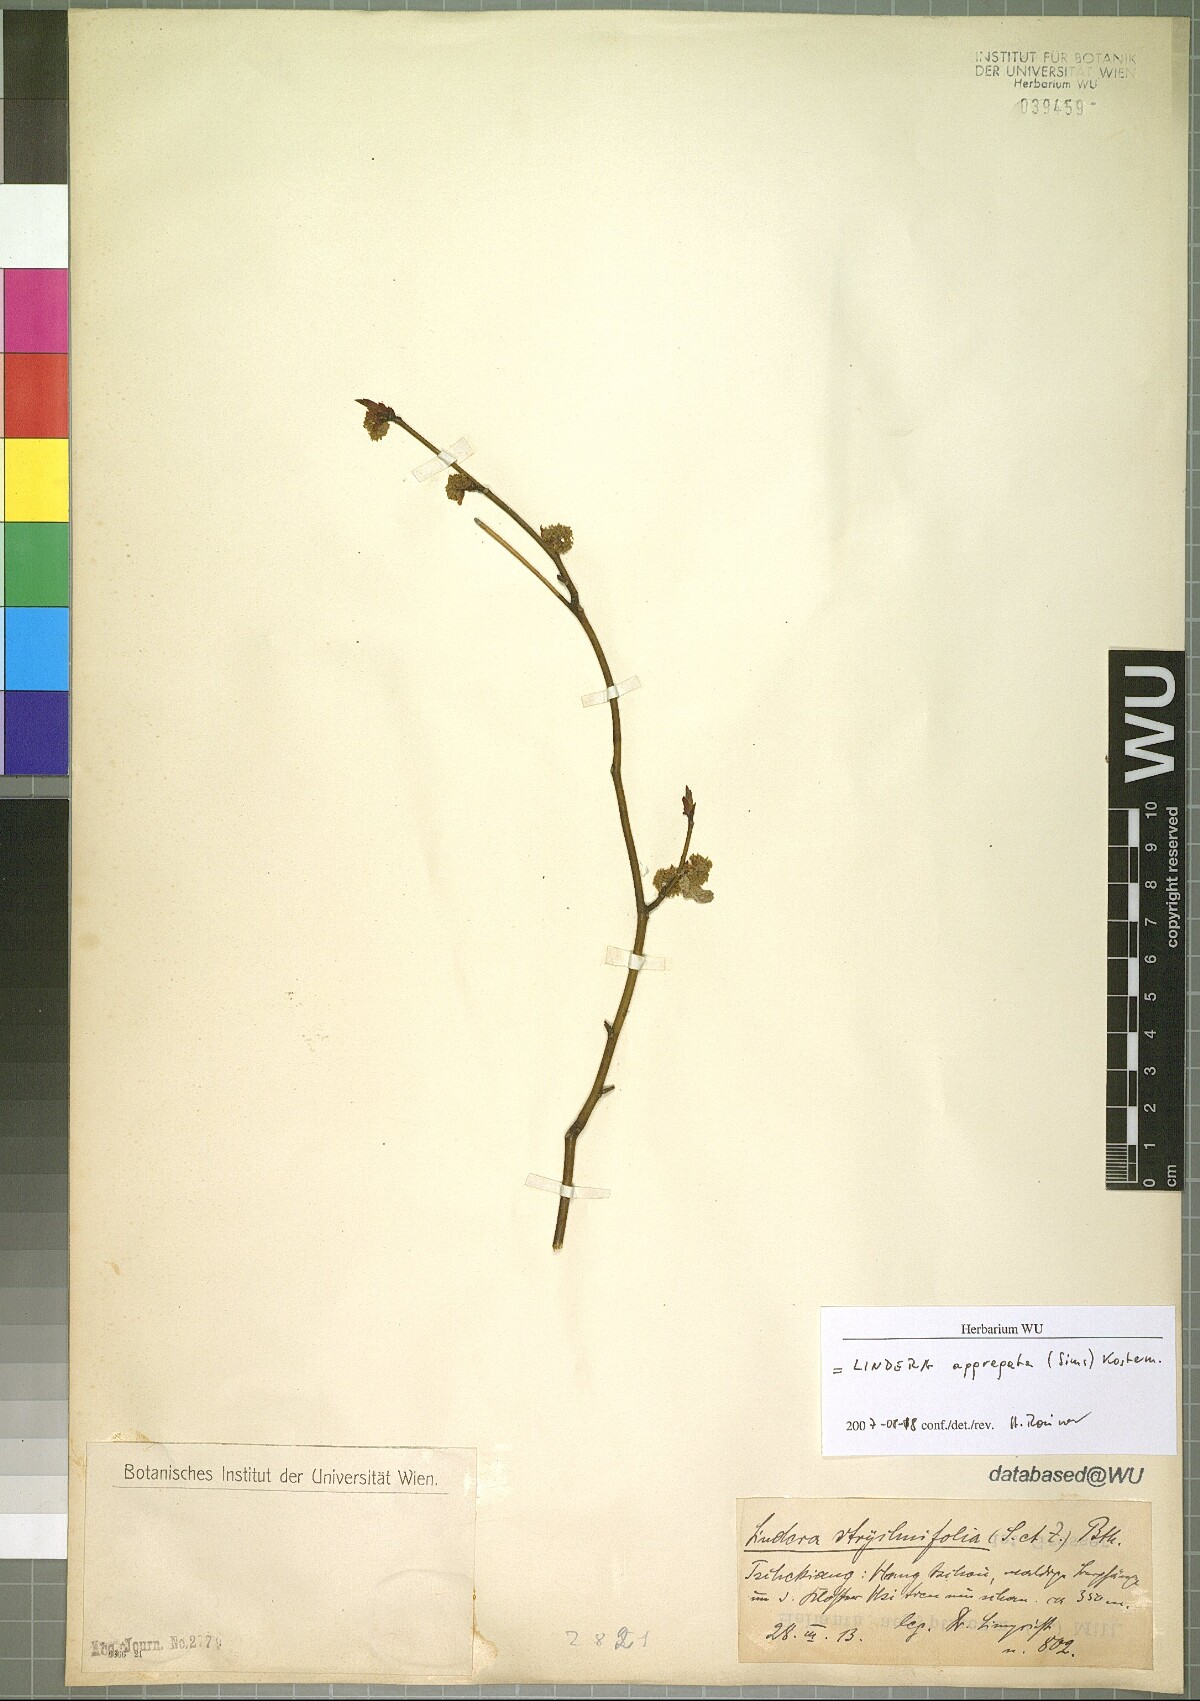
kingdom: Plantae
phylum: Tracheophyta
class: Magnoliopsida
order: Laurales
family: Lauraceae
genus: Lindera
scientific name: Lindera aggregata
